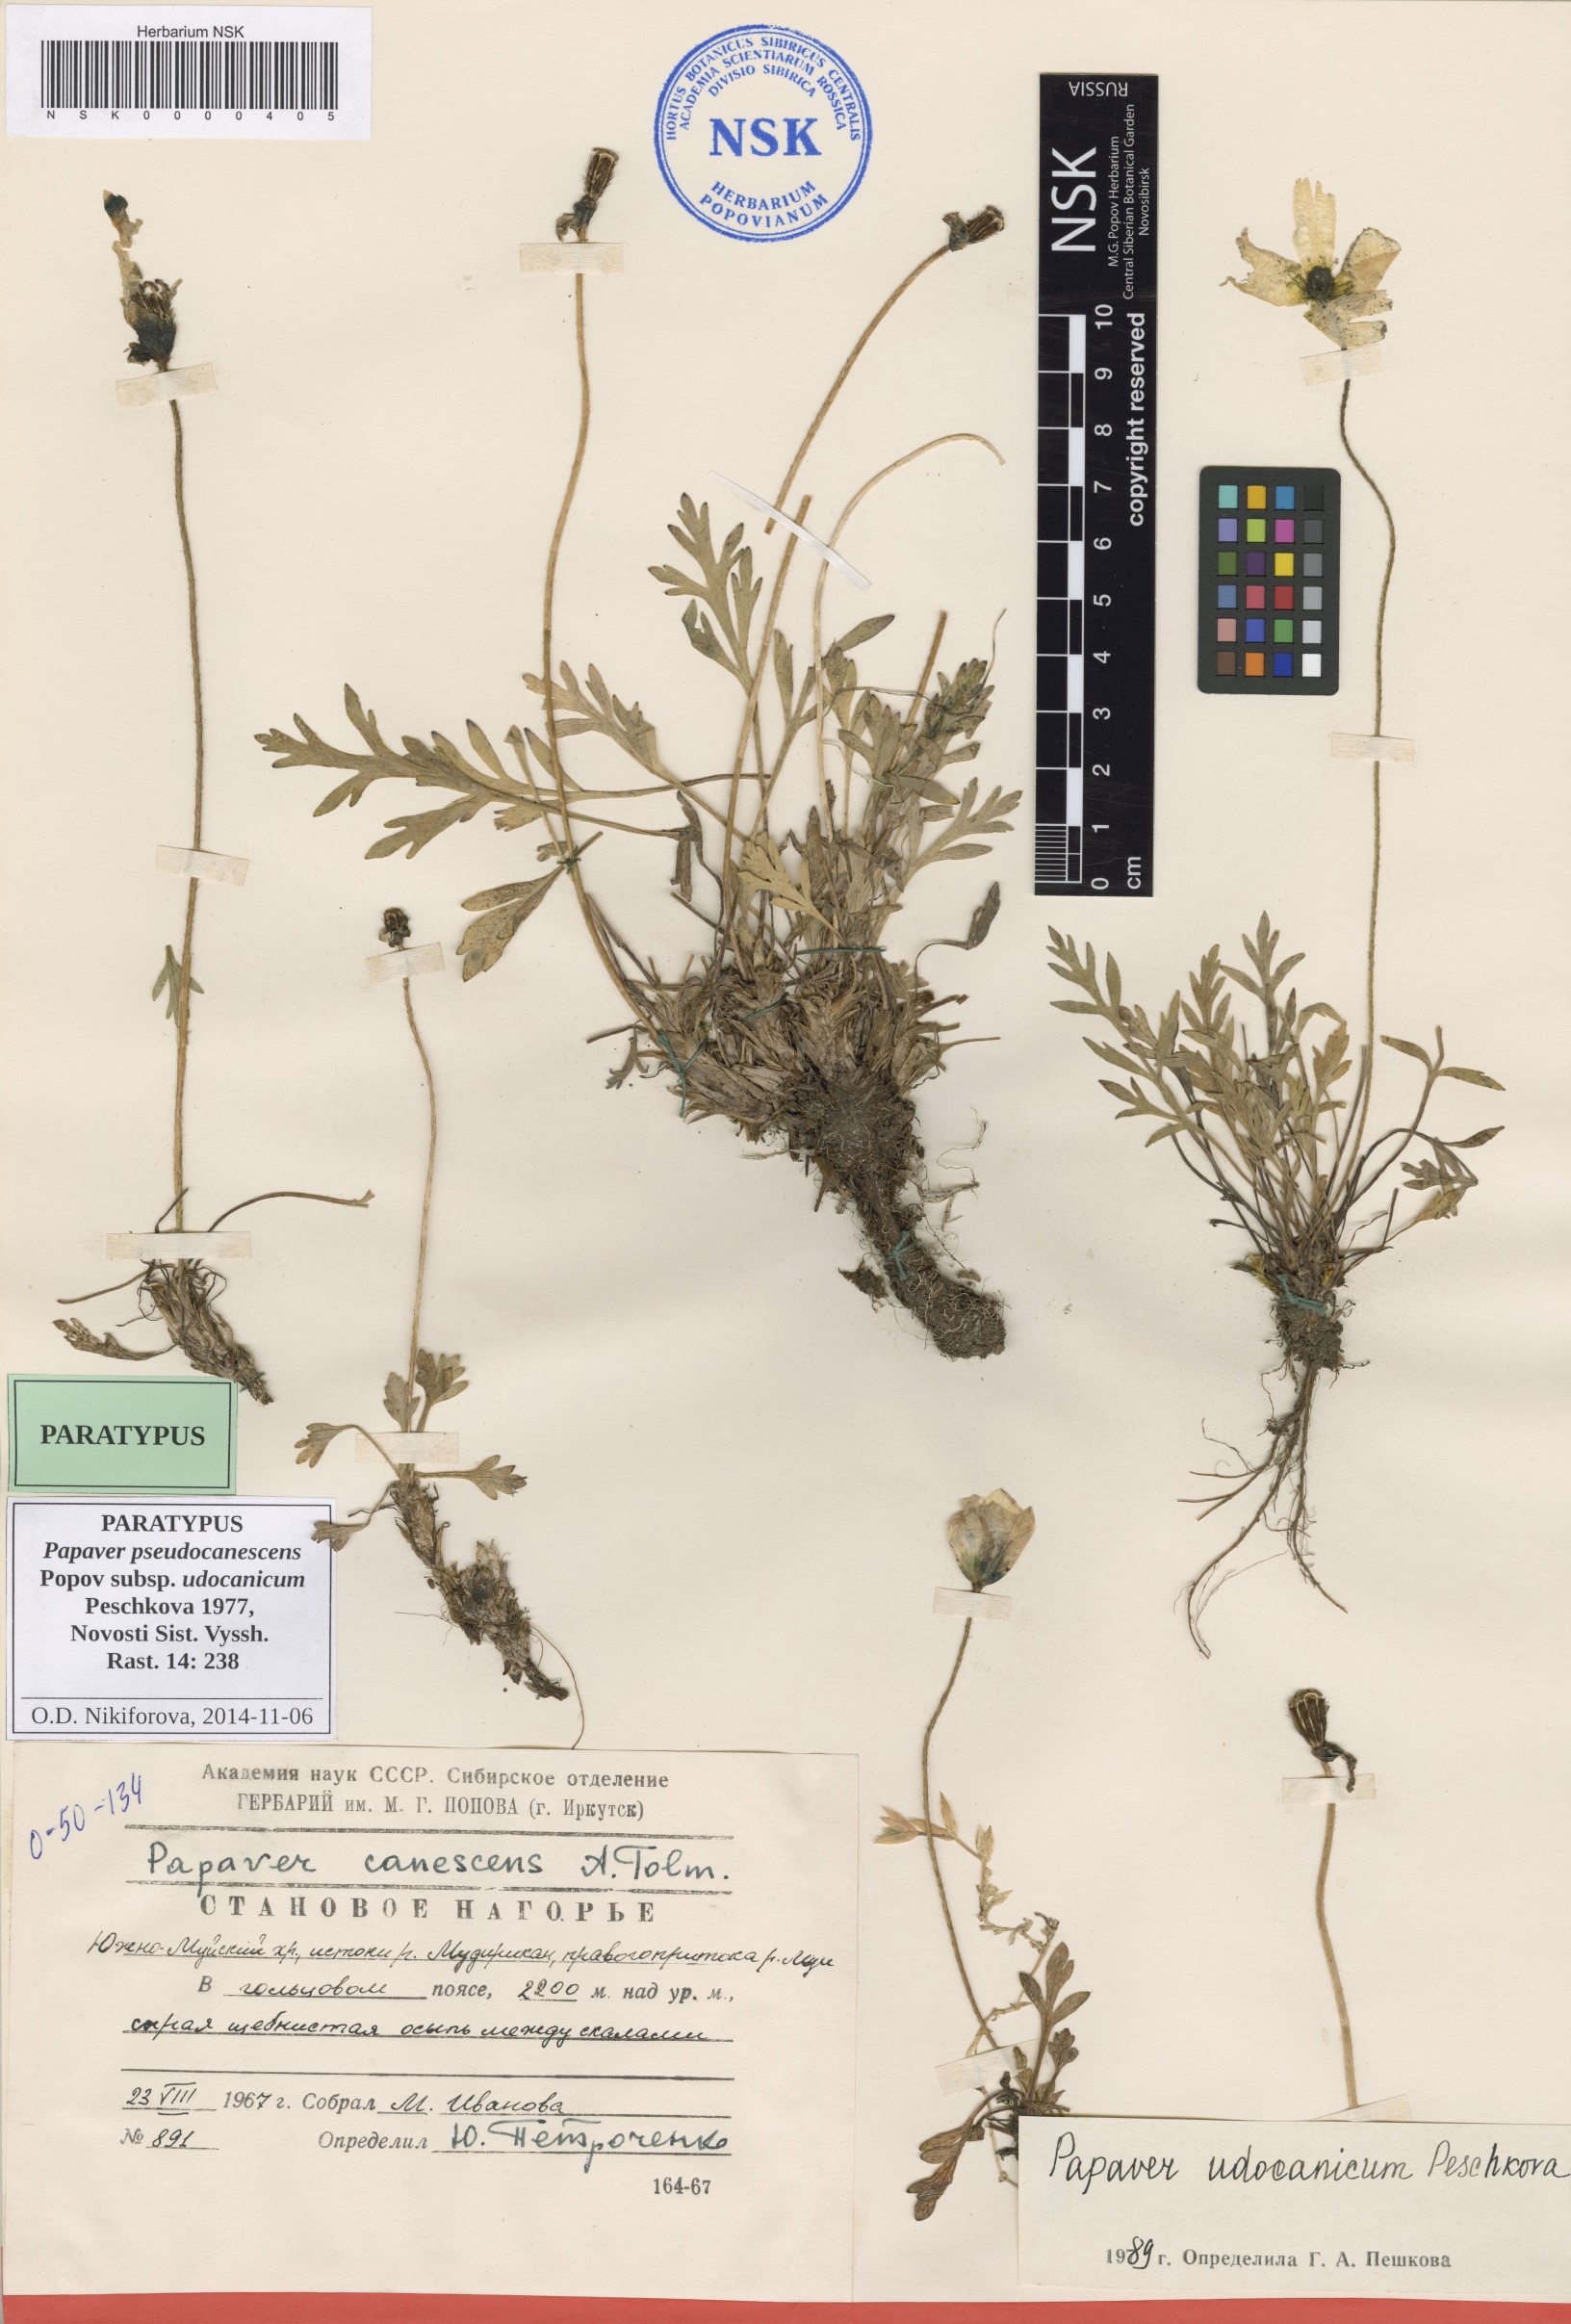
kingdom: Plantae
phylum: Tracheophyta
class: Magnoliopsida
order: Ranunculales
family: Papaveraceae
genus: Papaver
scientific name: Papaver udocanicum
